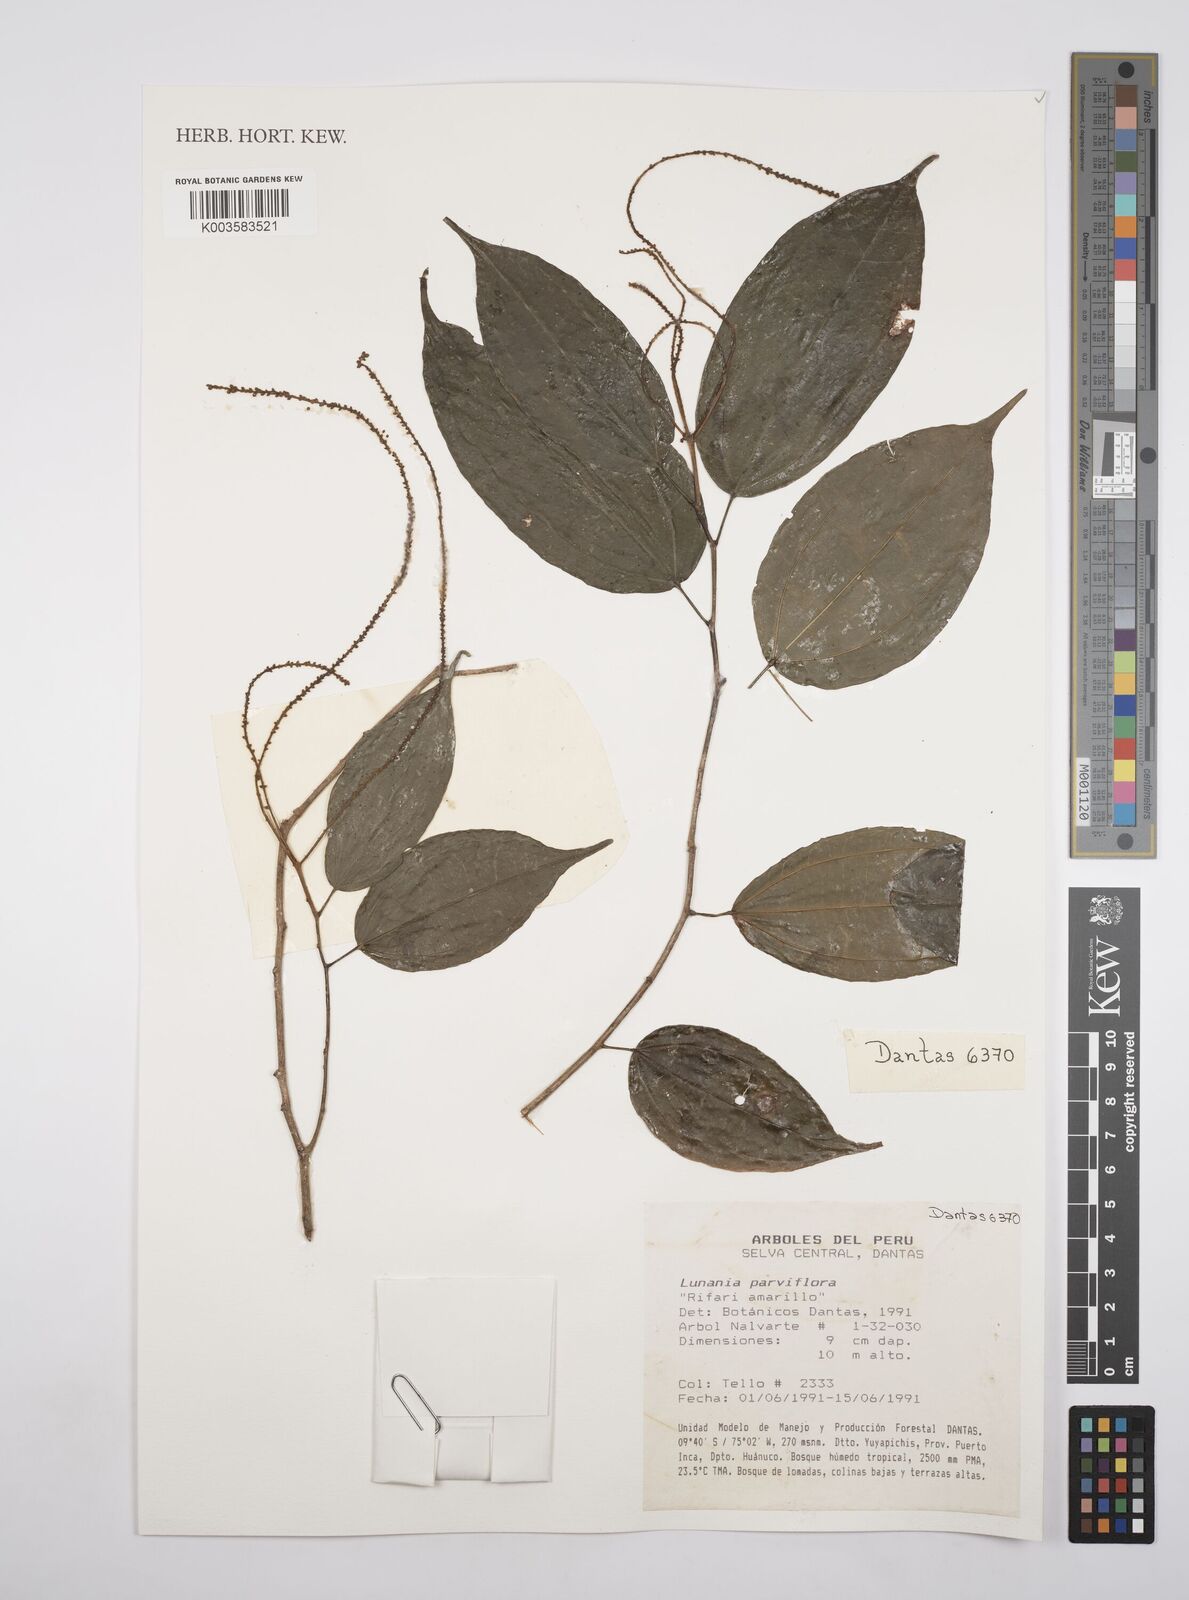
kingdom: Plantae
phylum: Tracheophyta
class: Magnoliopsida
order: Malpighiales
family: Salicaceae
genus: Lunania
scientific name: Lunania parviflora
